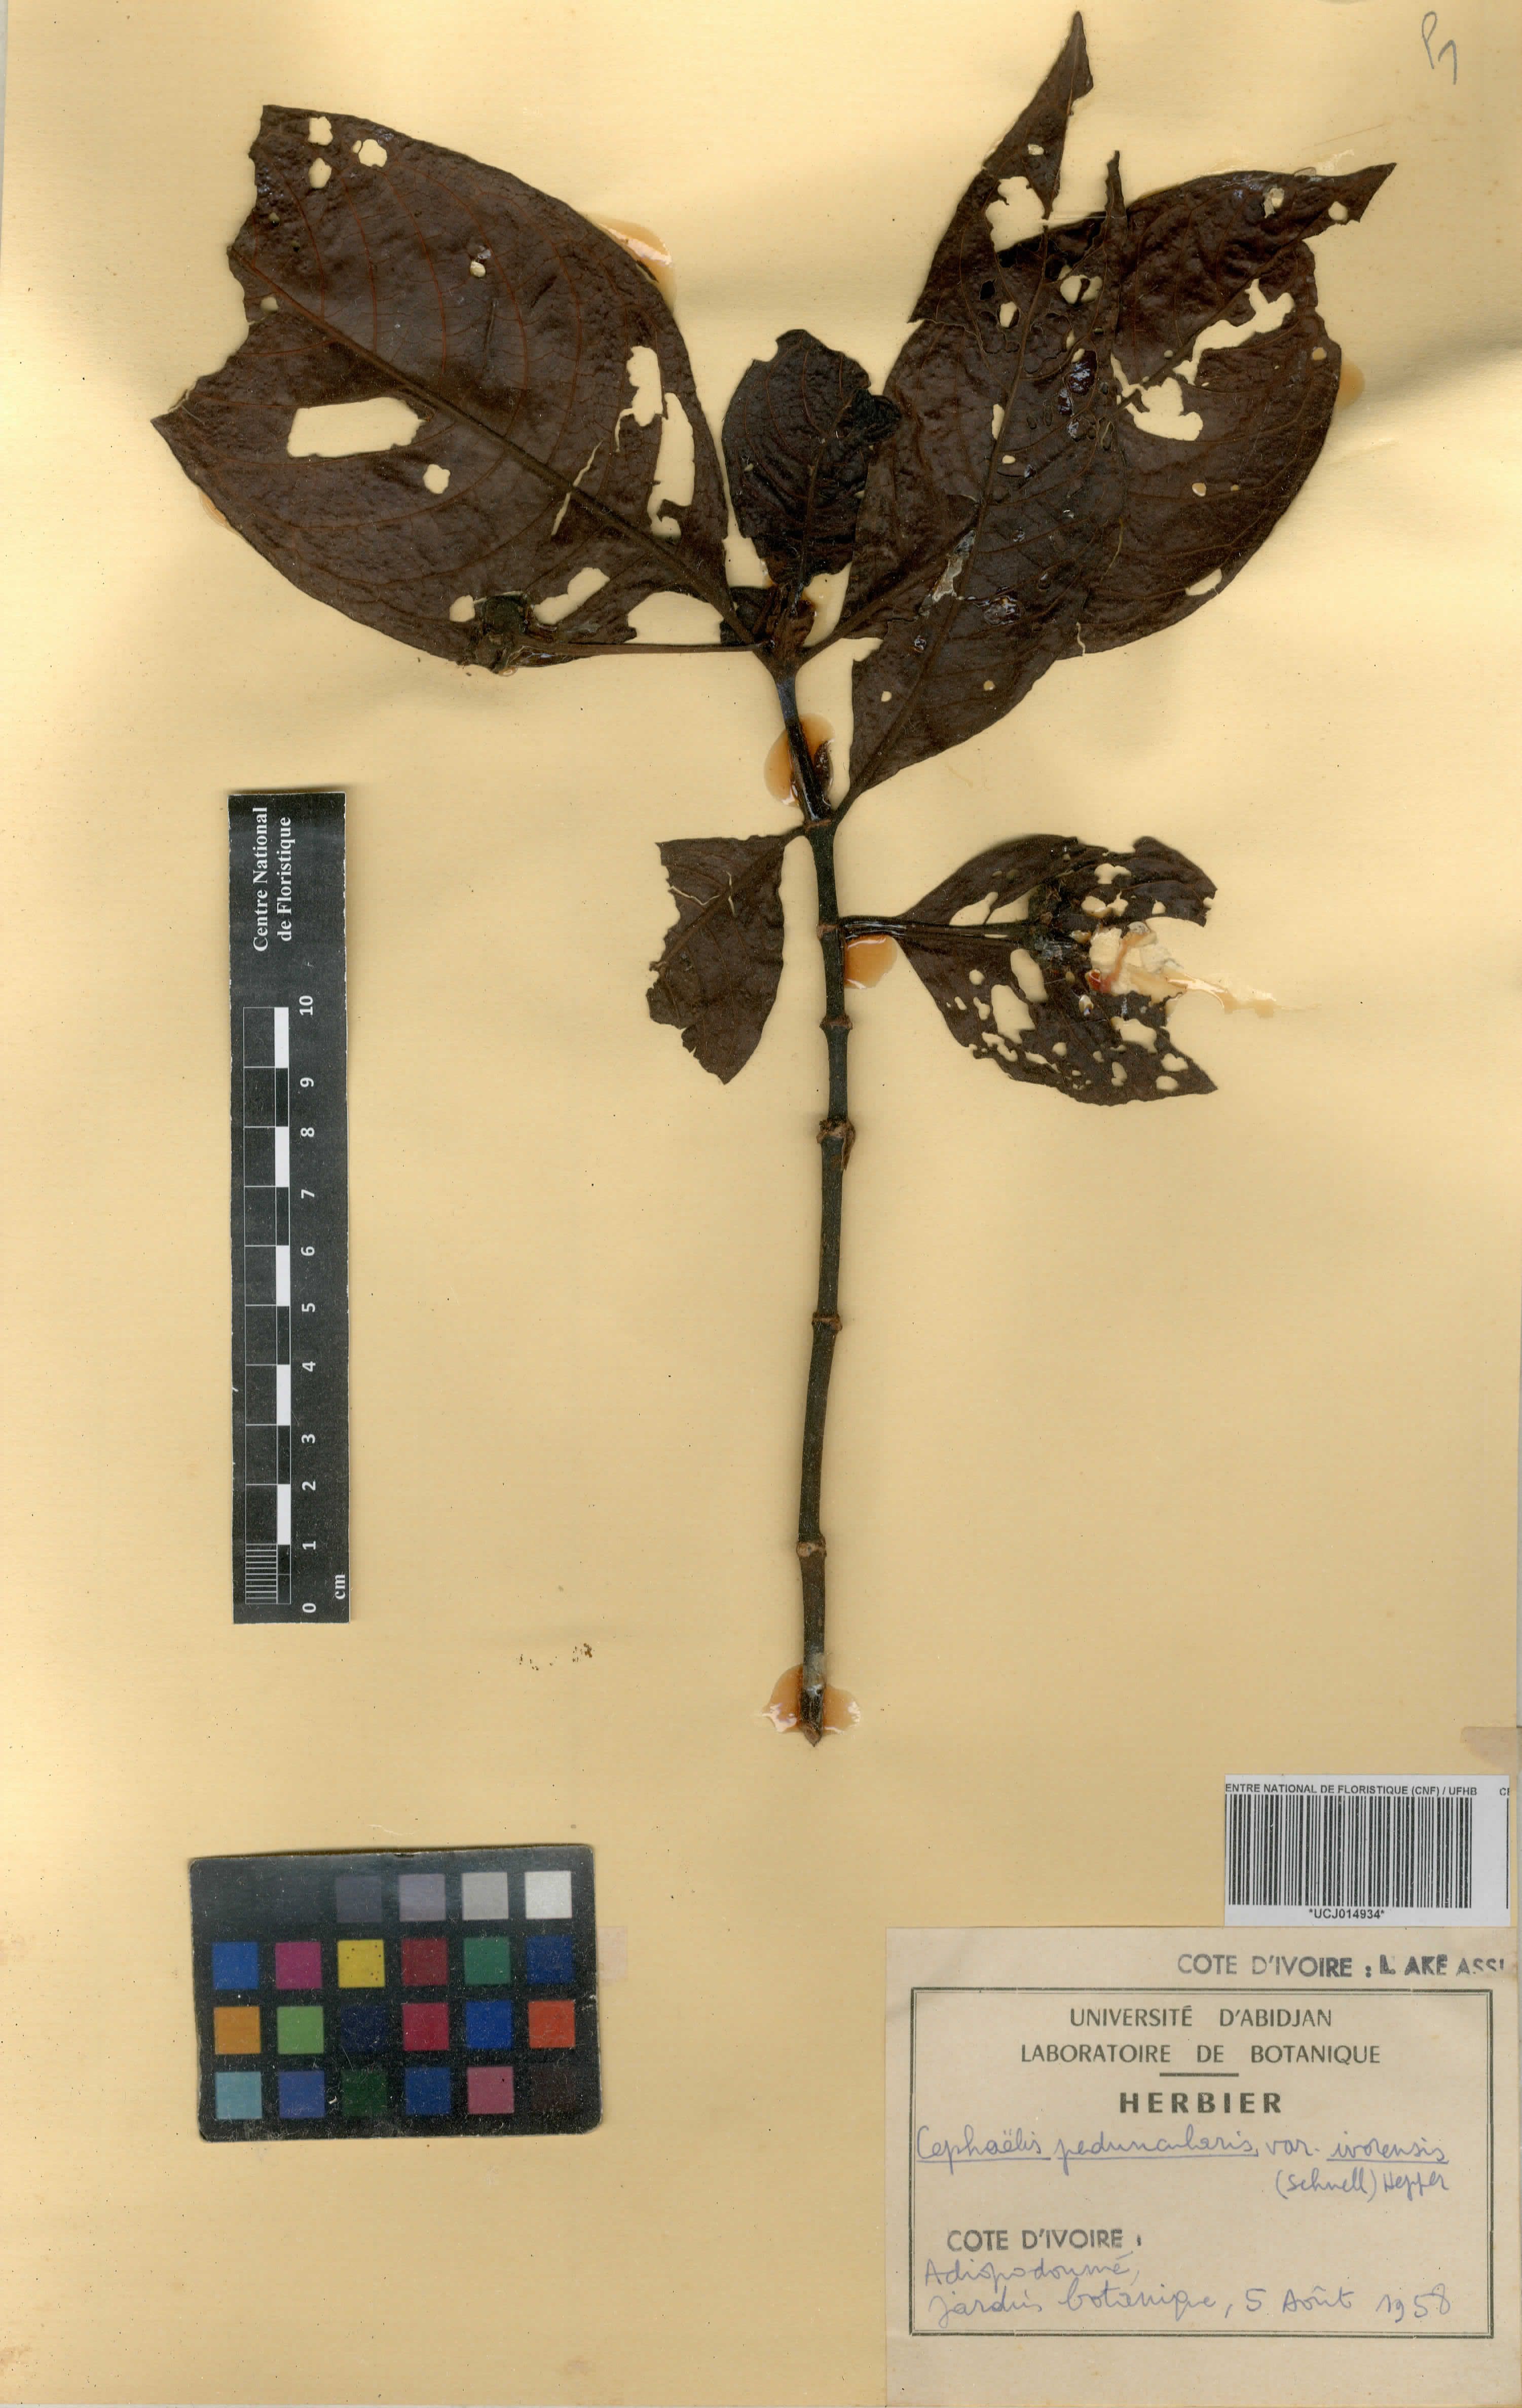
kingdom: Plantae
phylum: Tracheophyta
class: Magnoliopsida
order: Gentianales
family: Rubiaceae
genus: Psychotria
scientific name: Psychotria peduncularis
